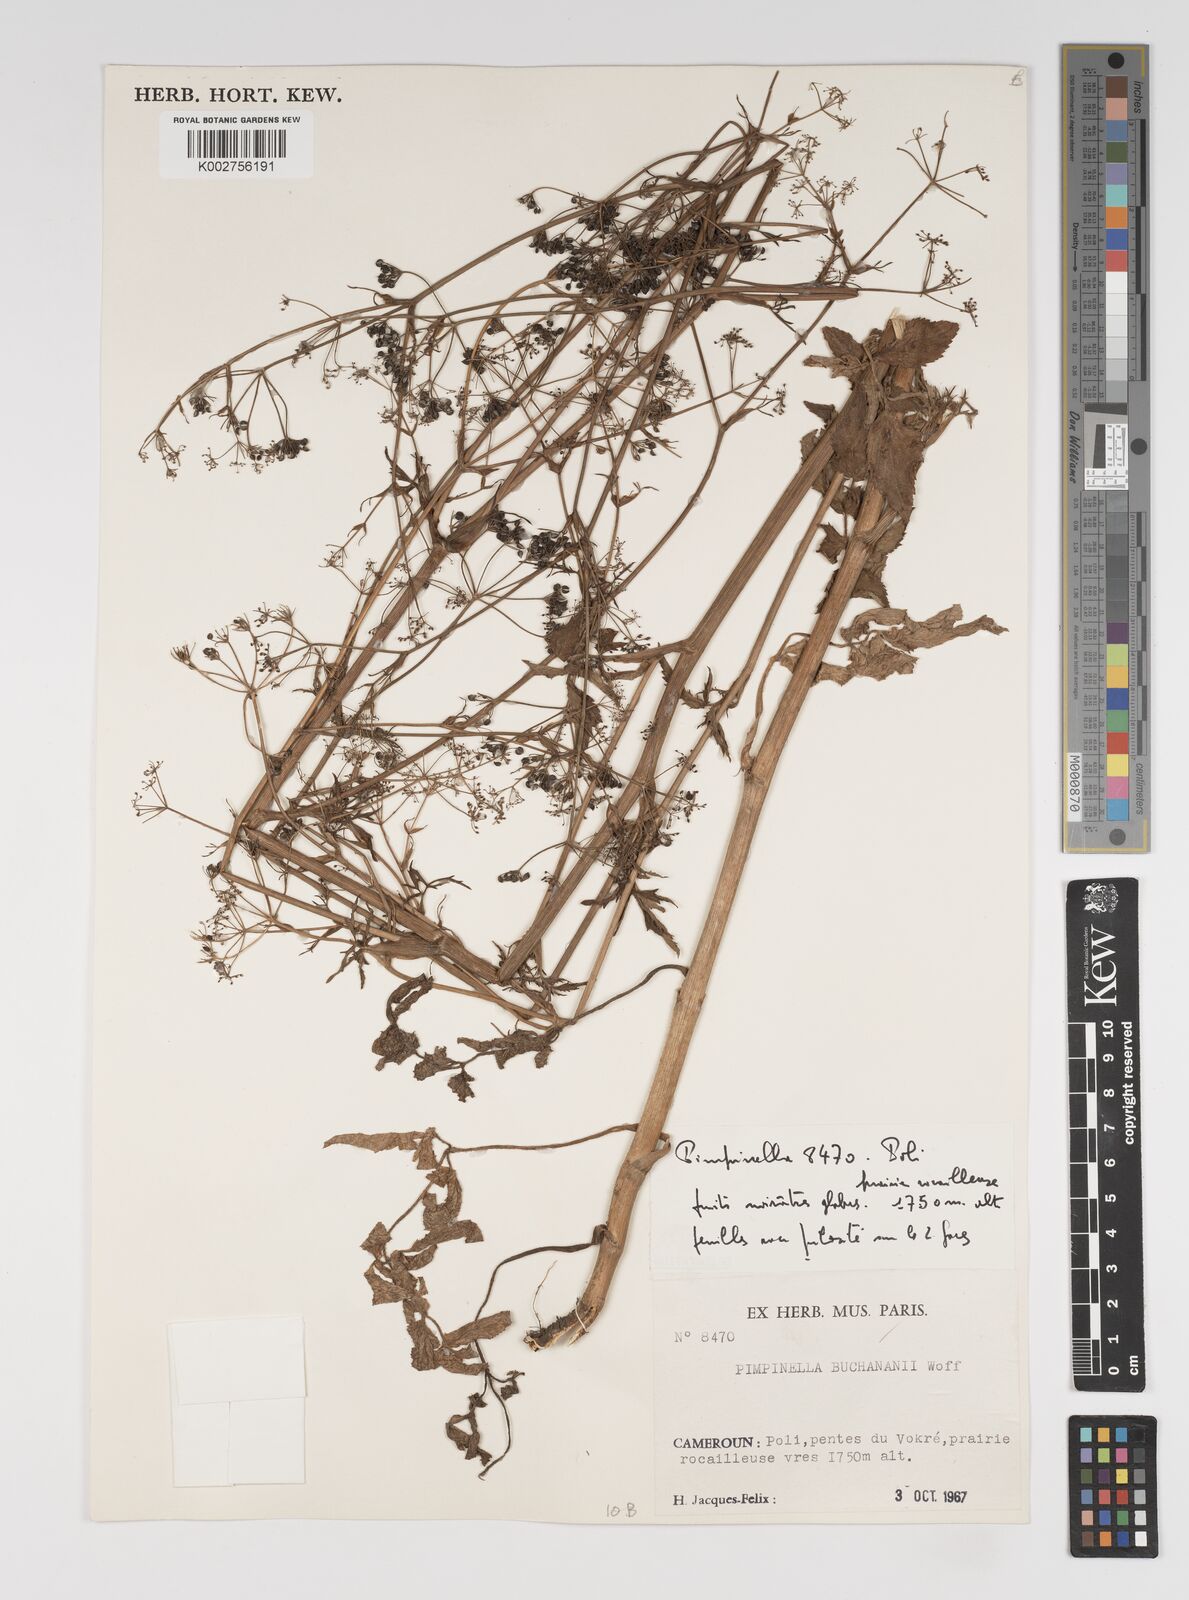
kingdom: Plantae
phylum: Tracheophyta
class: Magnoliopsida
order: Apiales
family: Apiaceae
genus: Pimpinella
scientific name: Pimpinella buchananii
